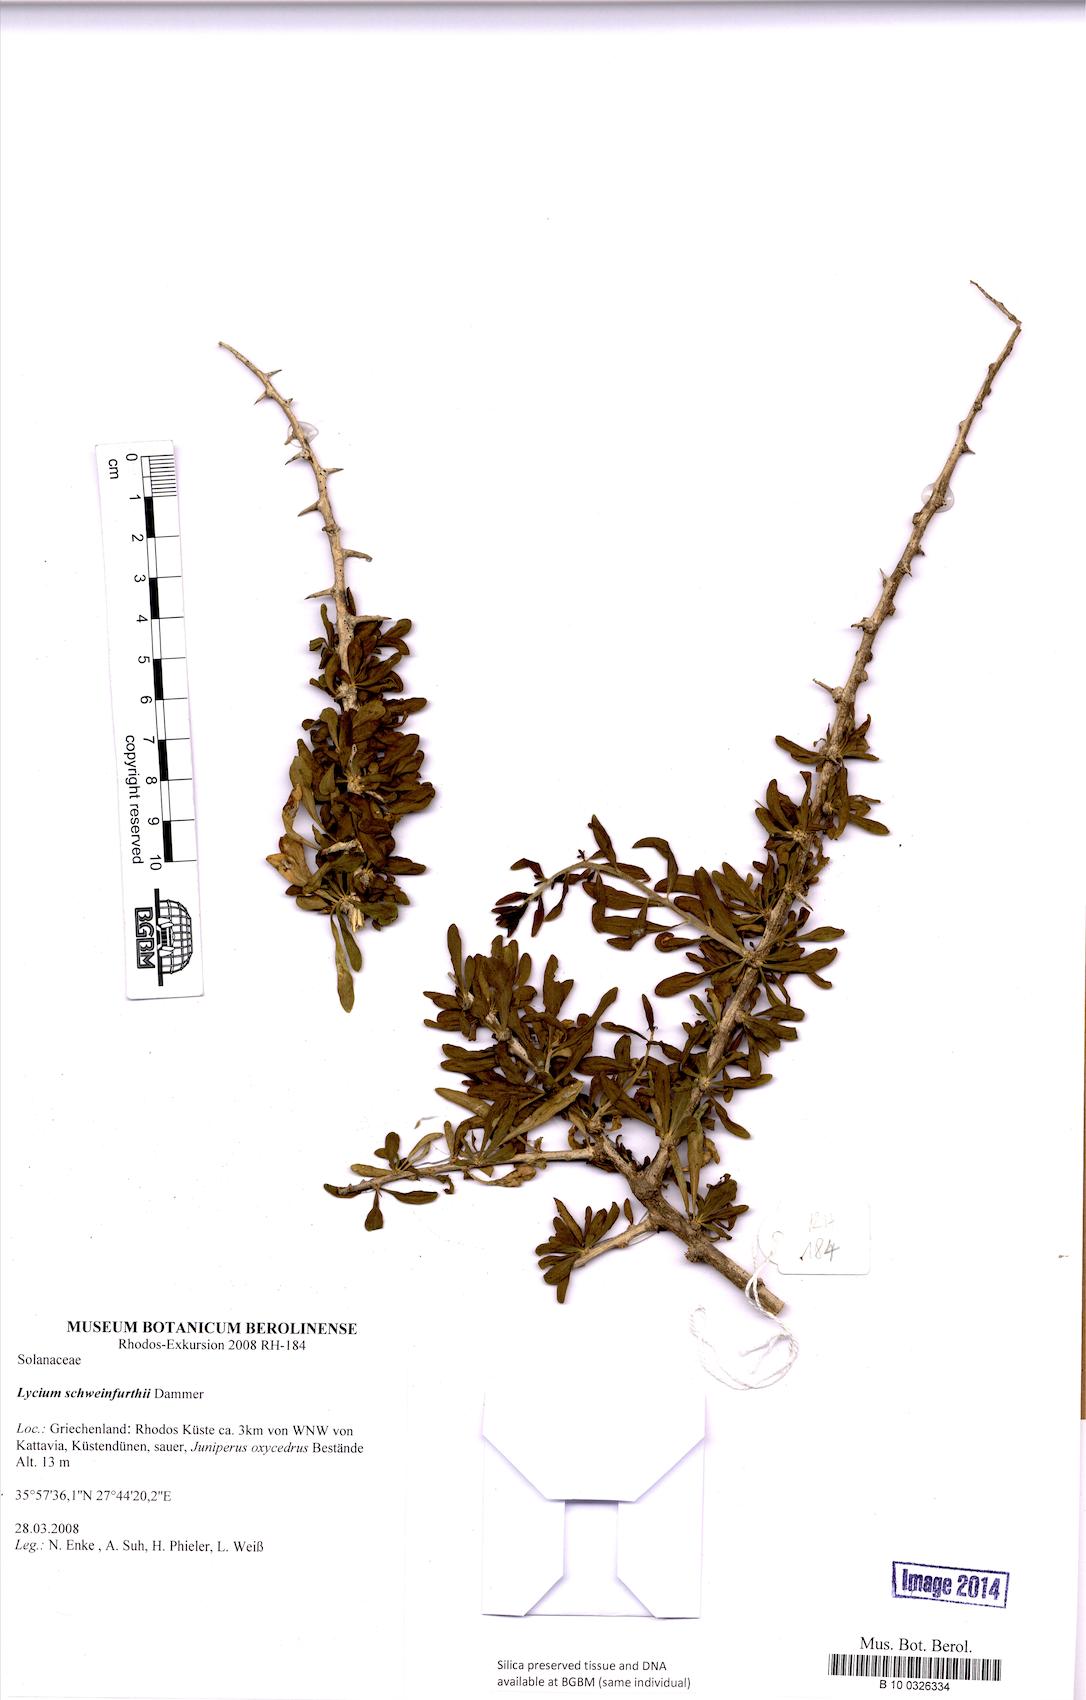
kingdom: Plantae
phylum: Tracheophyta
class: Magnoliopsida
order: Solanales
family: Solanaceae
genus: Lycium
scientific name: Lycium schweinfurthii
